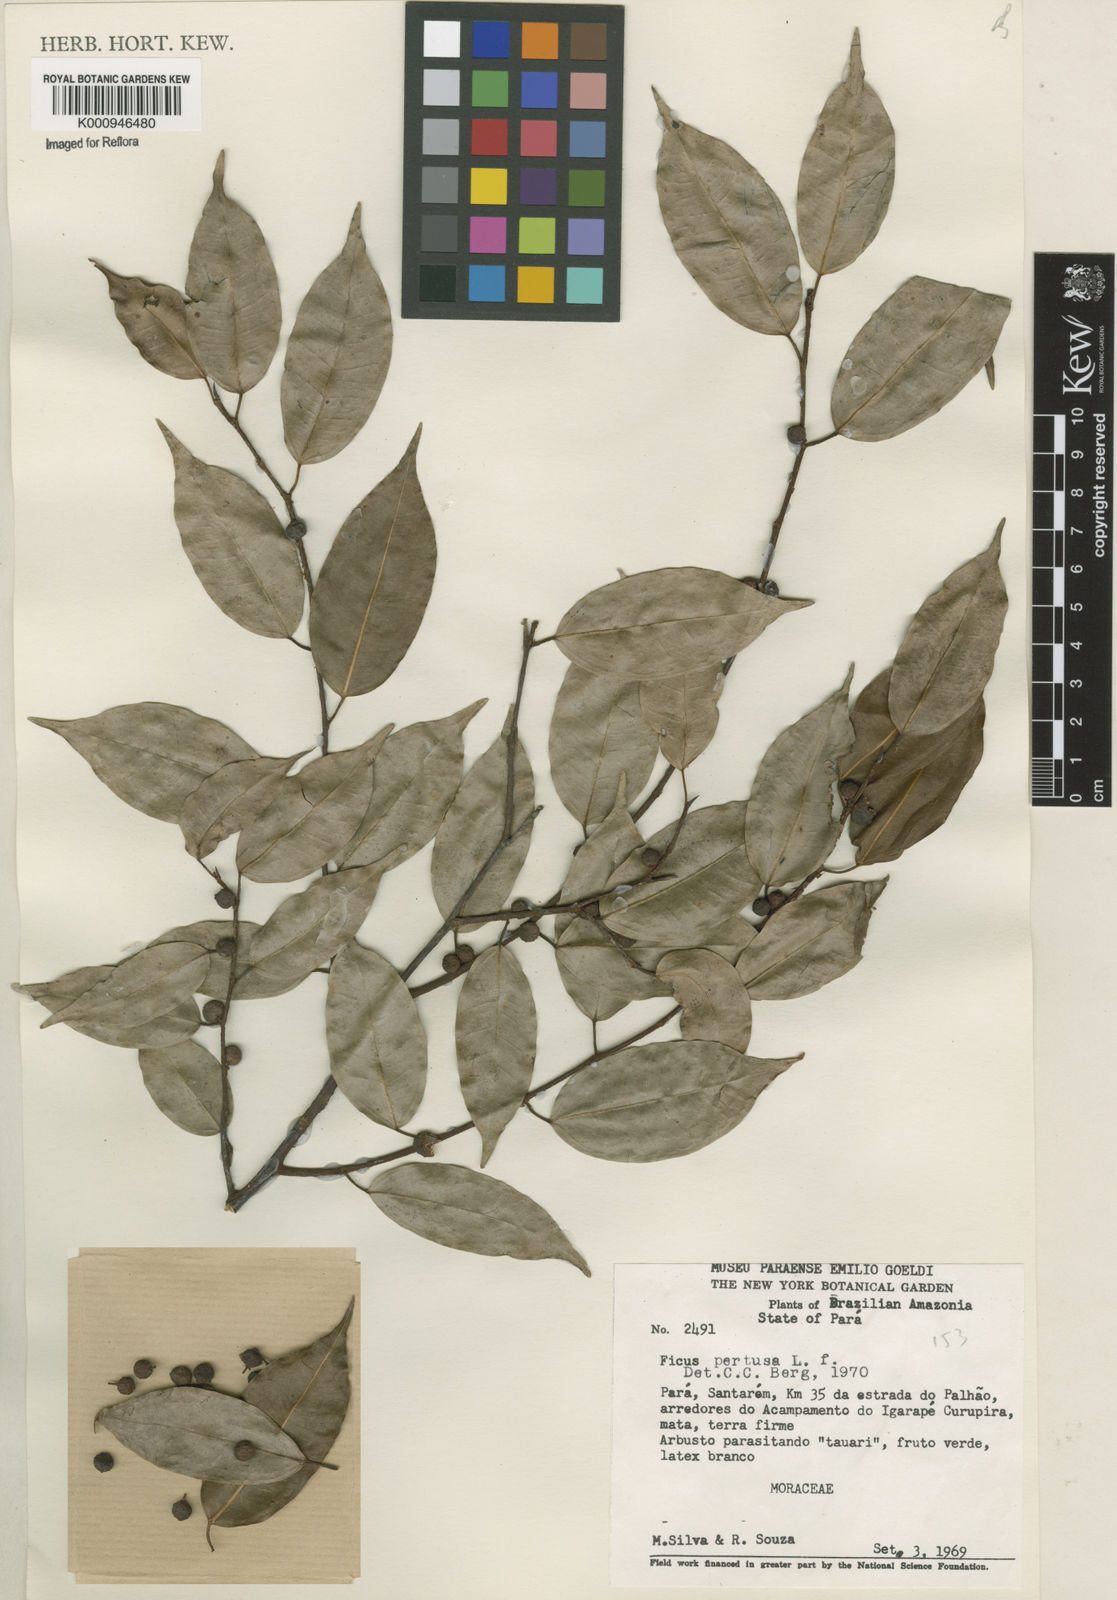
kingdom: Plantae
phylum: Tracheophyta
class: Magnoliopsida
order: Rosales
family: Moraceae
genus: Ficus
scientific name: Ficus pertusa
